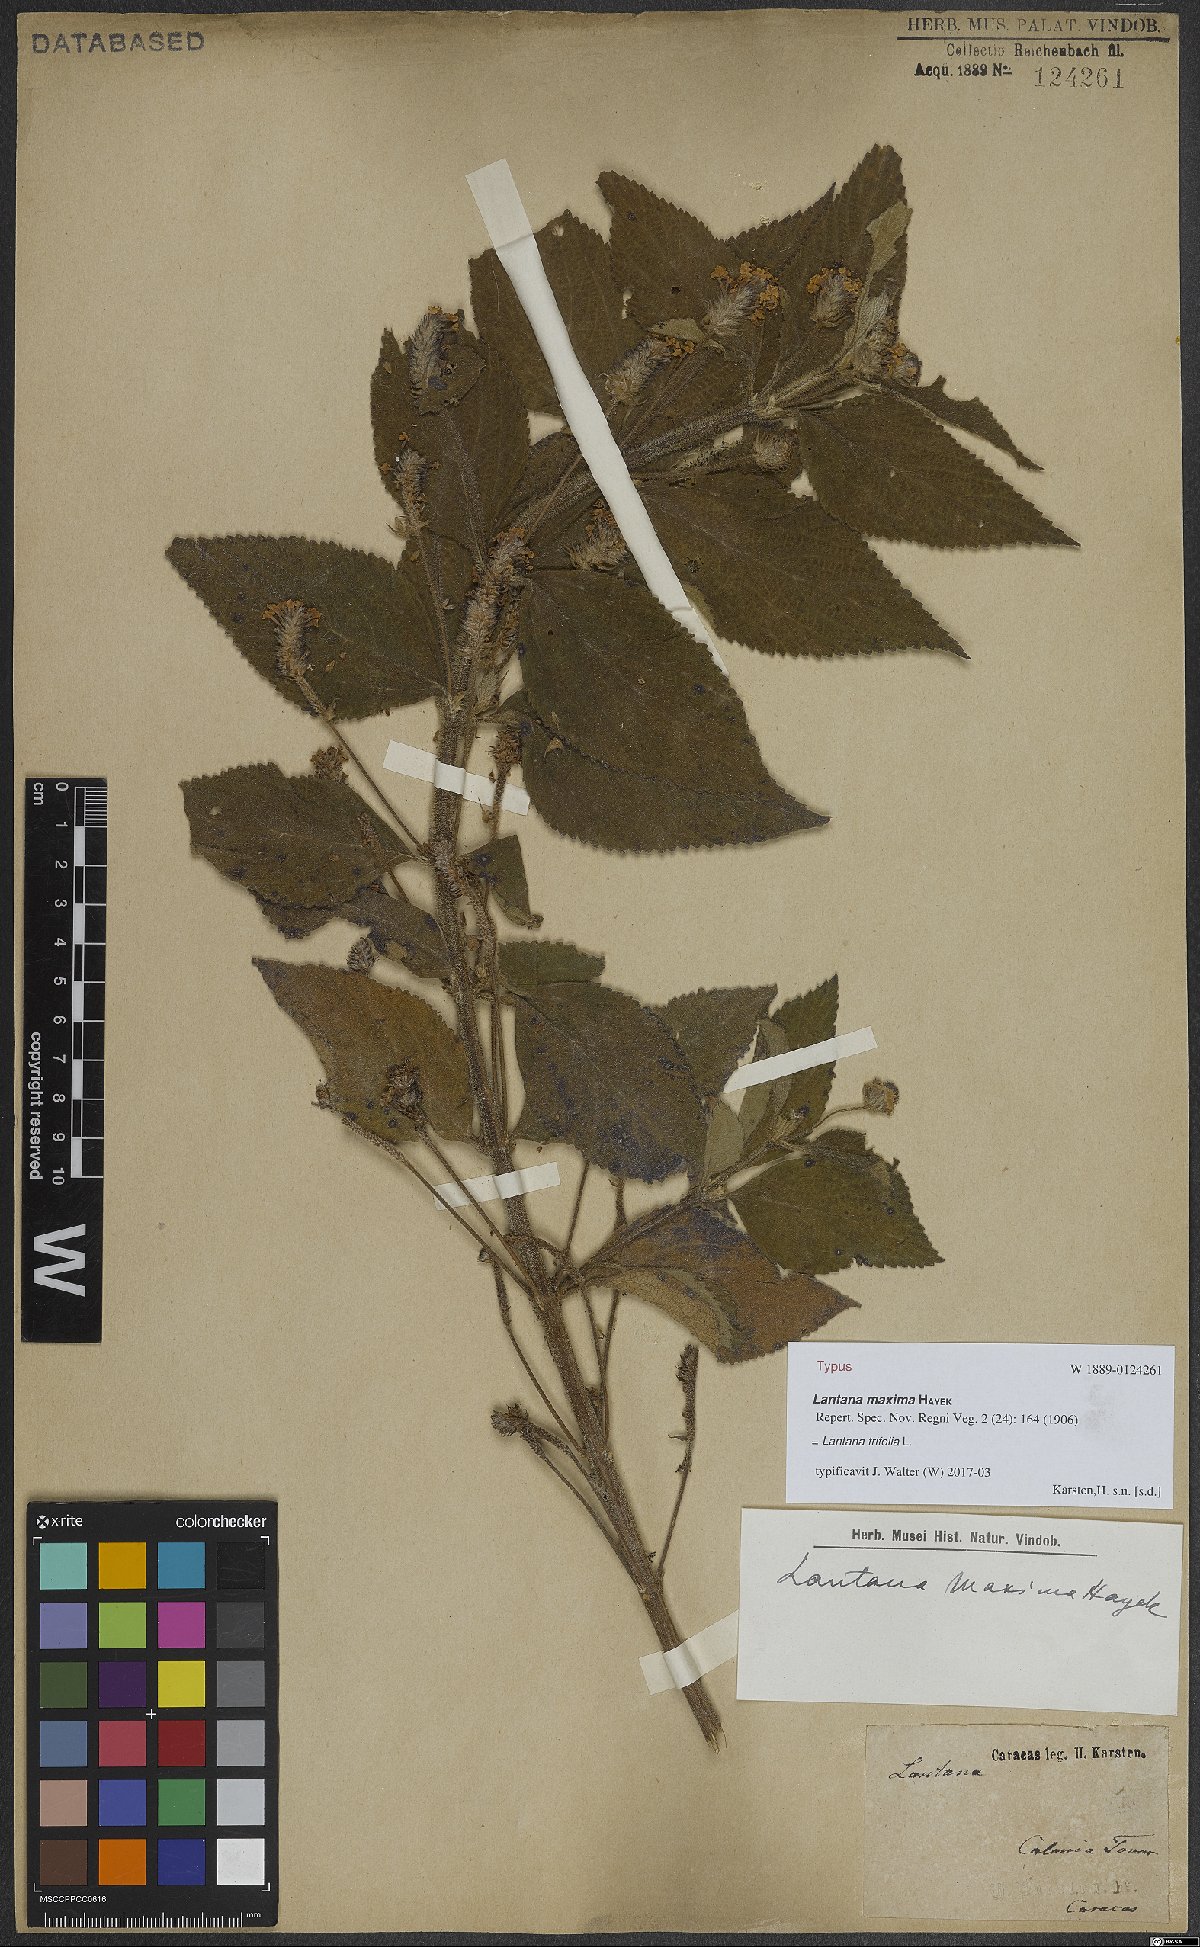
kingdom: Plantae
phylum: Tracheophyta
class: Magnoliopsida
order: Lamiales
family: Verbenaceae
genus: Lantana
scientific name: Lantana trifolia
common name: Sweet-sage
